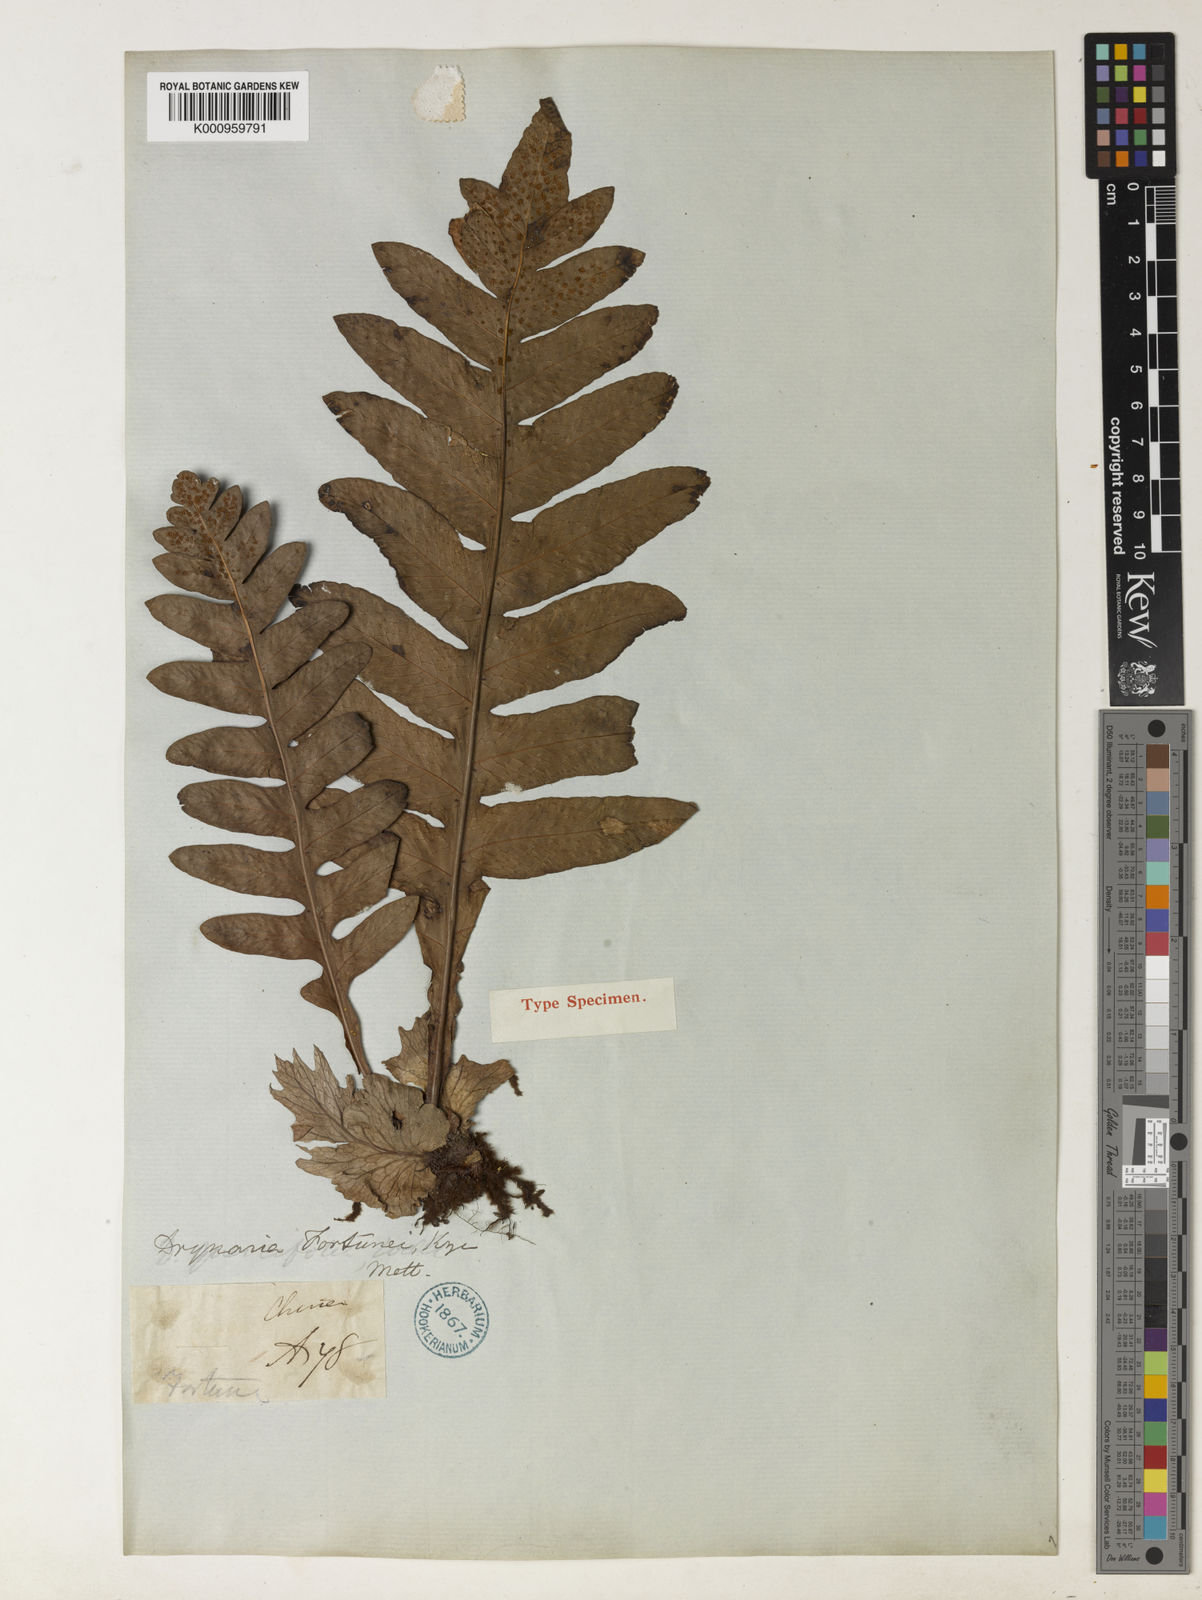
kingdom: Plantae
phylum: Tracheophyta
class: Polypodiopsida
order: Polypodiales
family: Polypodiaceae
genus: Drynaria
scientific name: Drynaria roosii
